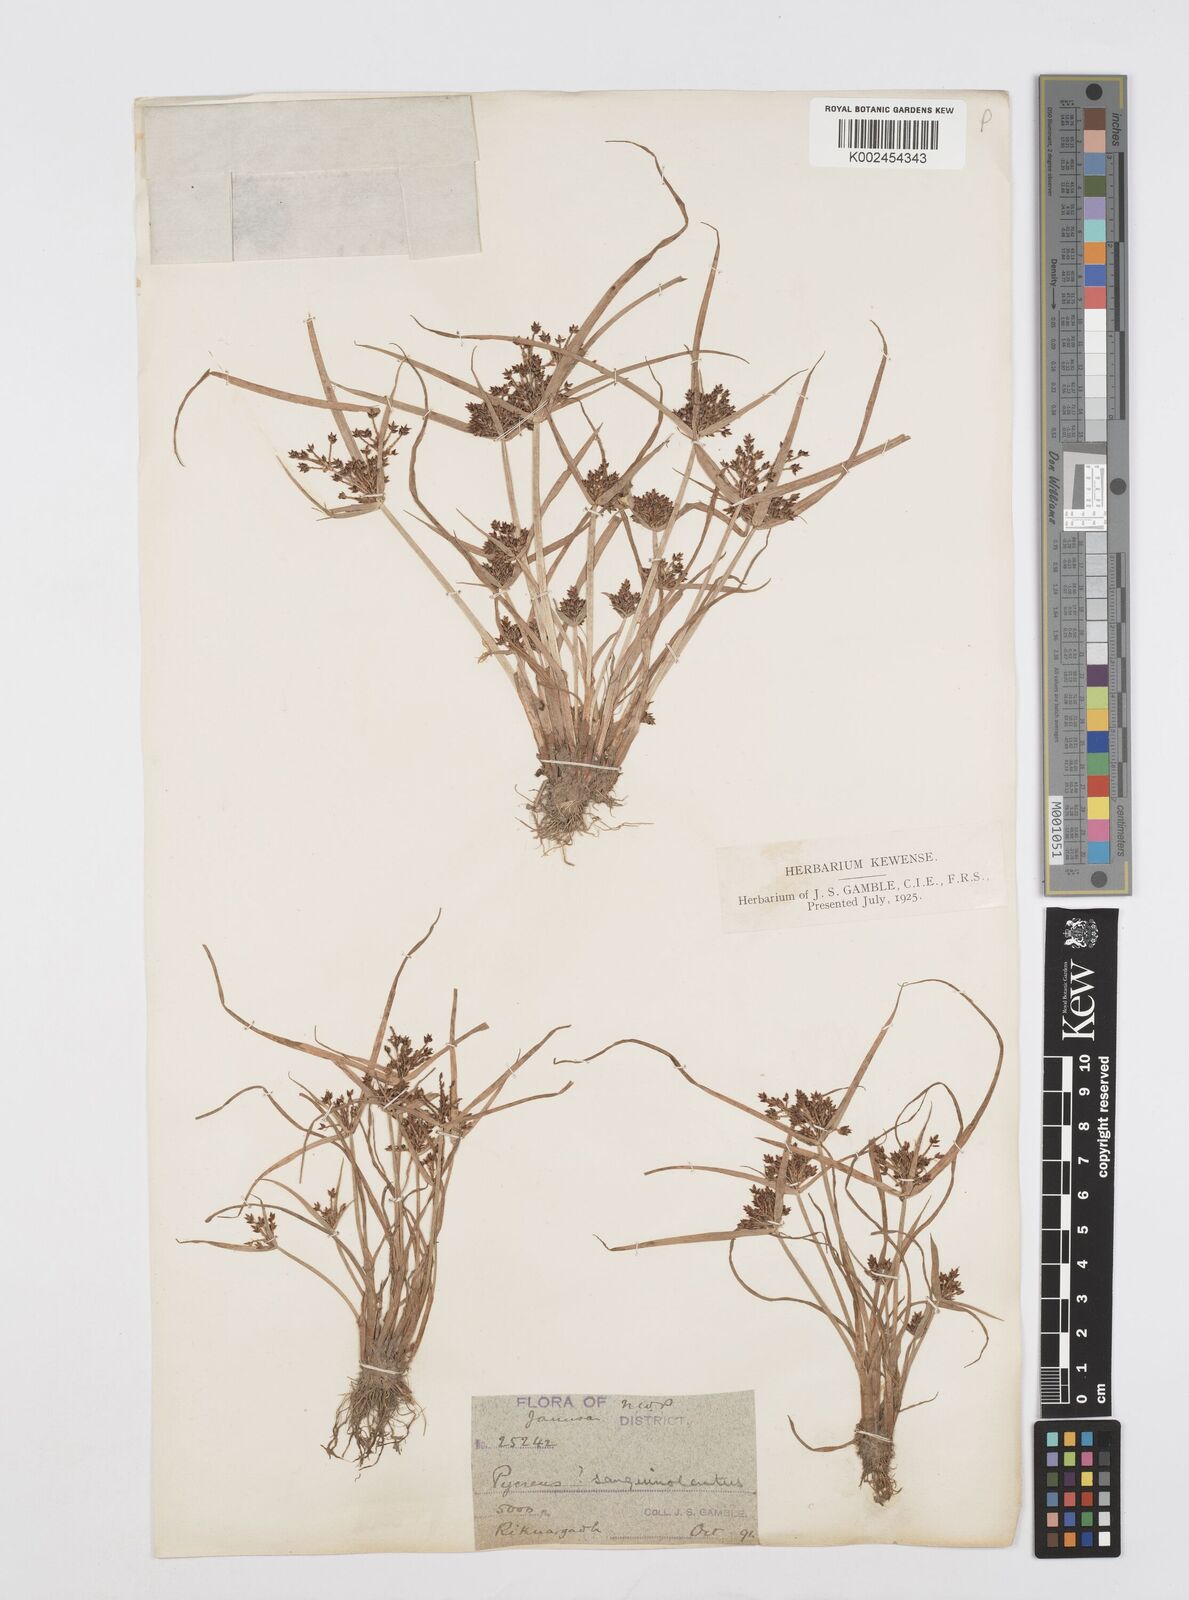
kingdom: Plantae
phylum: Tracheophyta
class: Liliopsida
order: Poales
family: Cyperaceae
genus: Cyperus
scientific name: Cyperus sanguinolentus
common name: Purpleglume flatsedge
